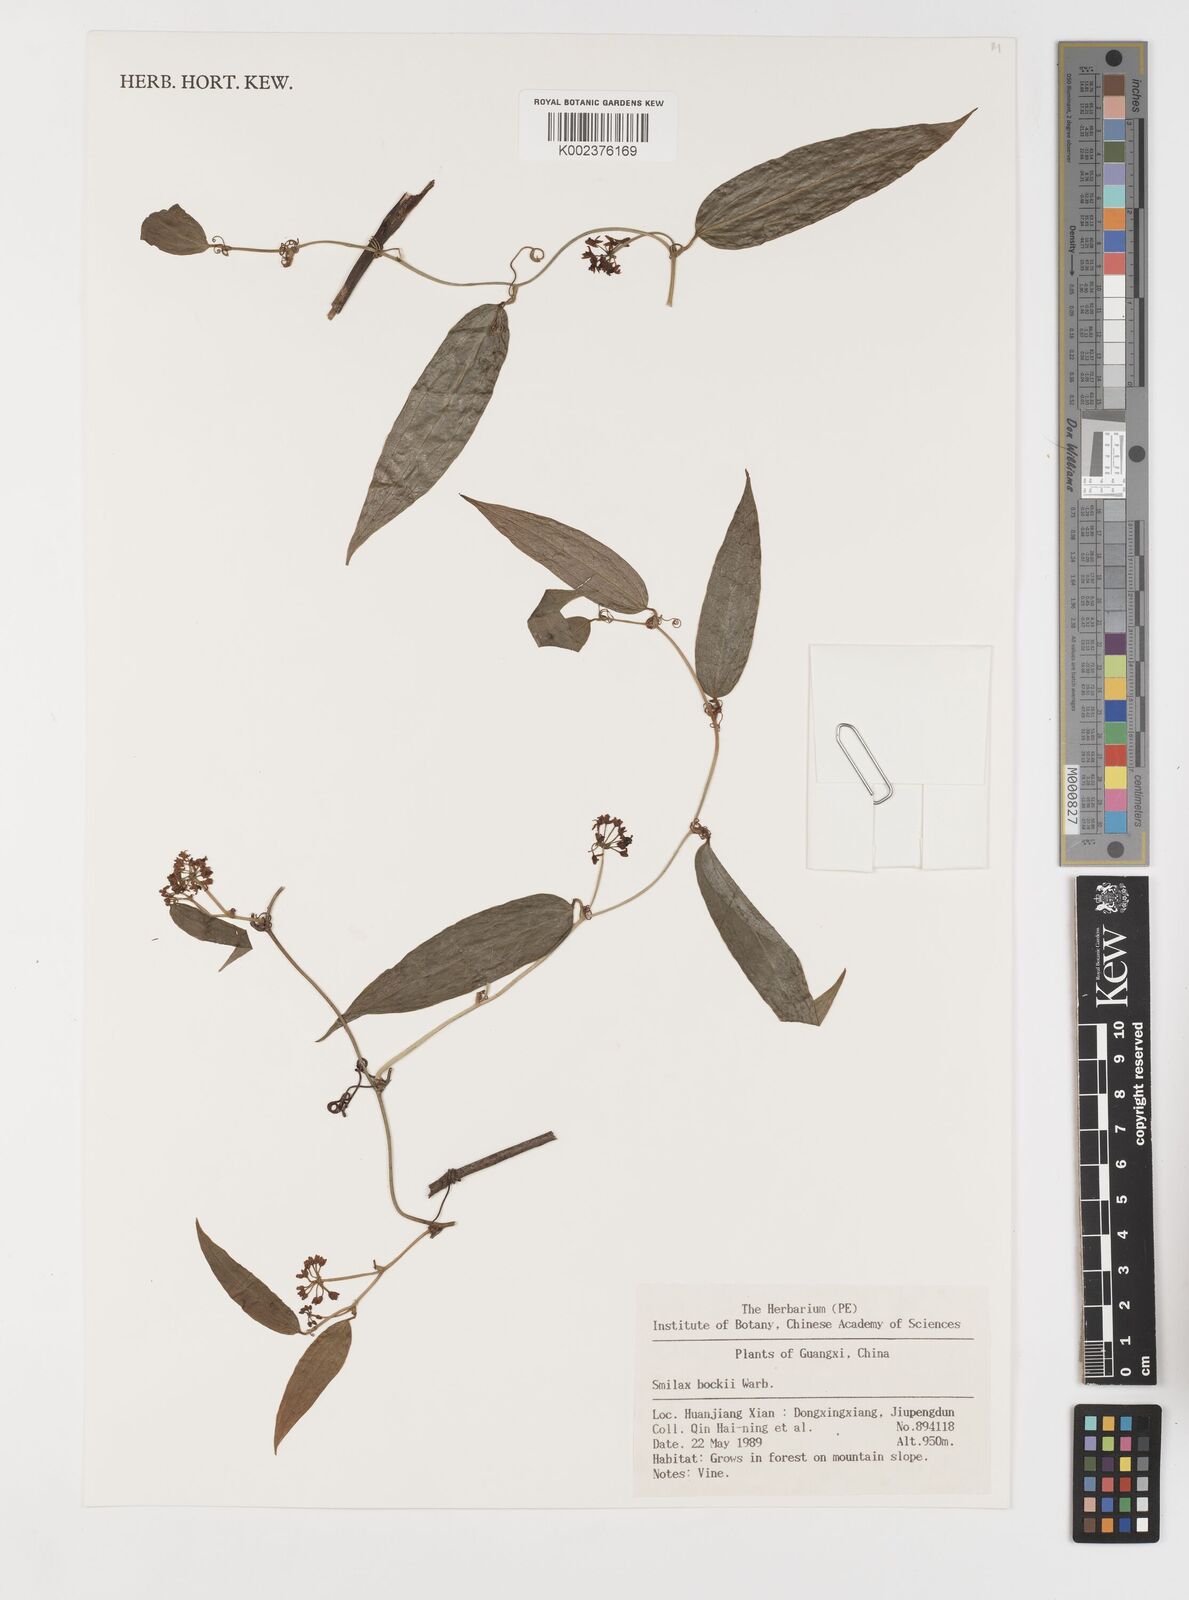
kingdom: Plantae
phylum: Tracheophyta
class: Liliopsida
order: Liliales
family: Smilacaceae
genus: Smilax
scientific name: Smilax bockii
